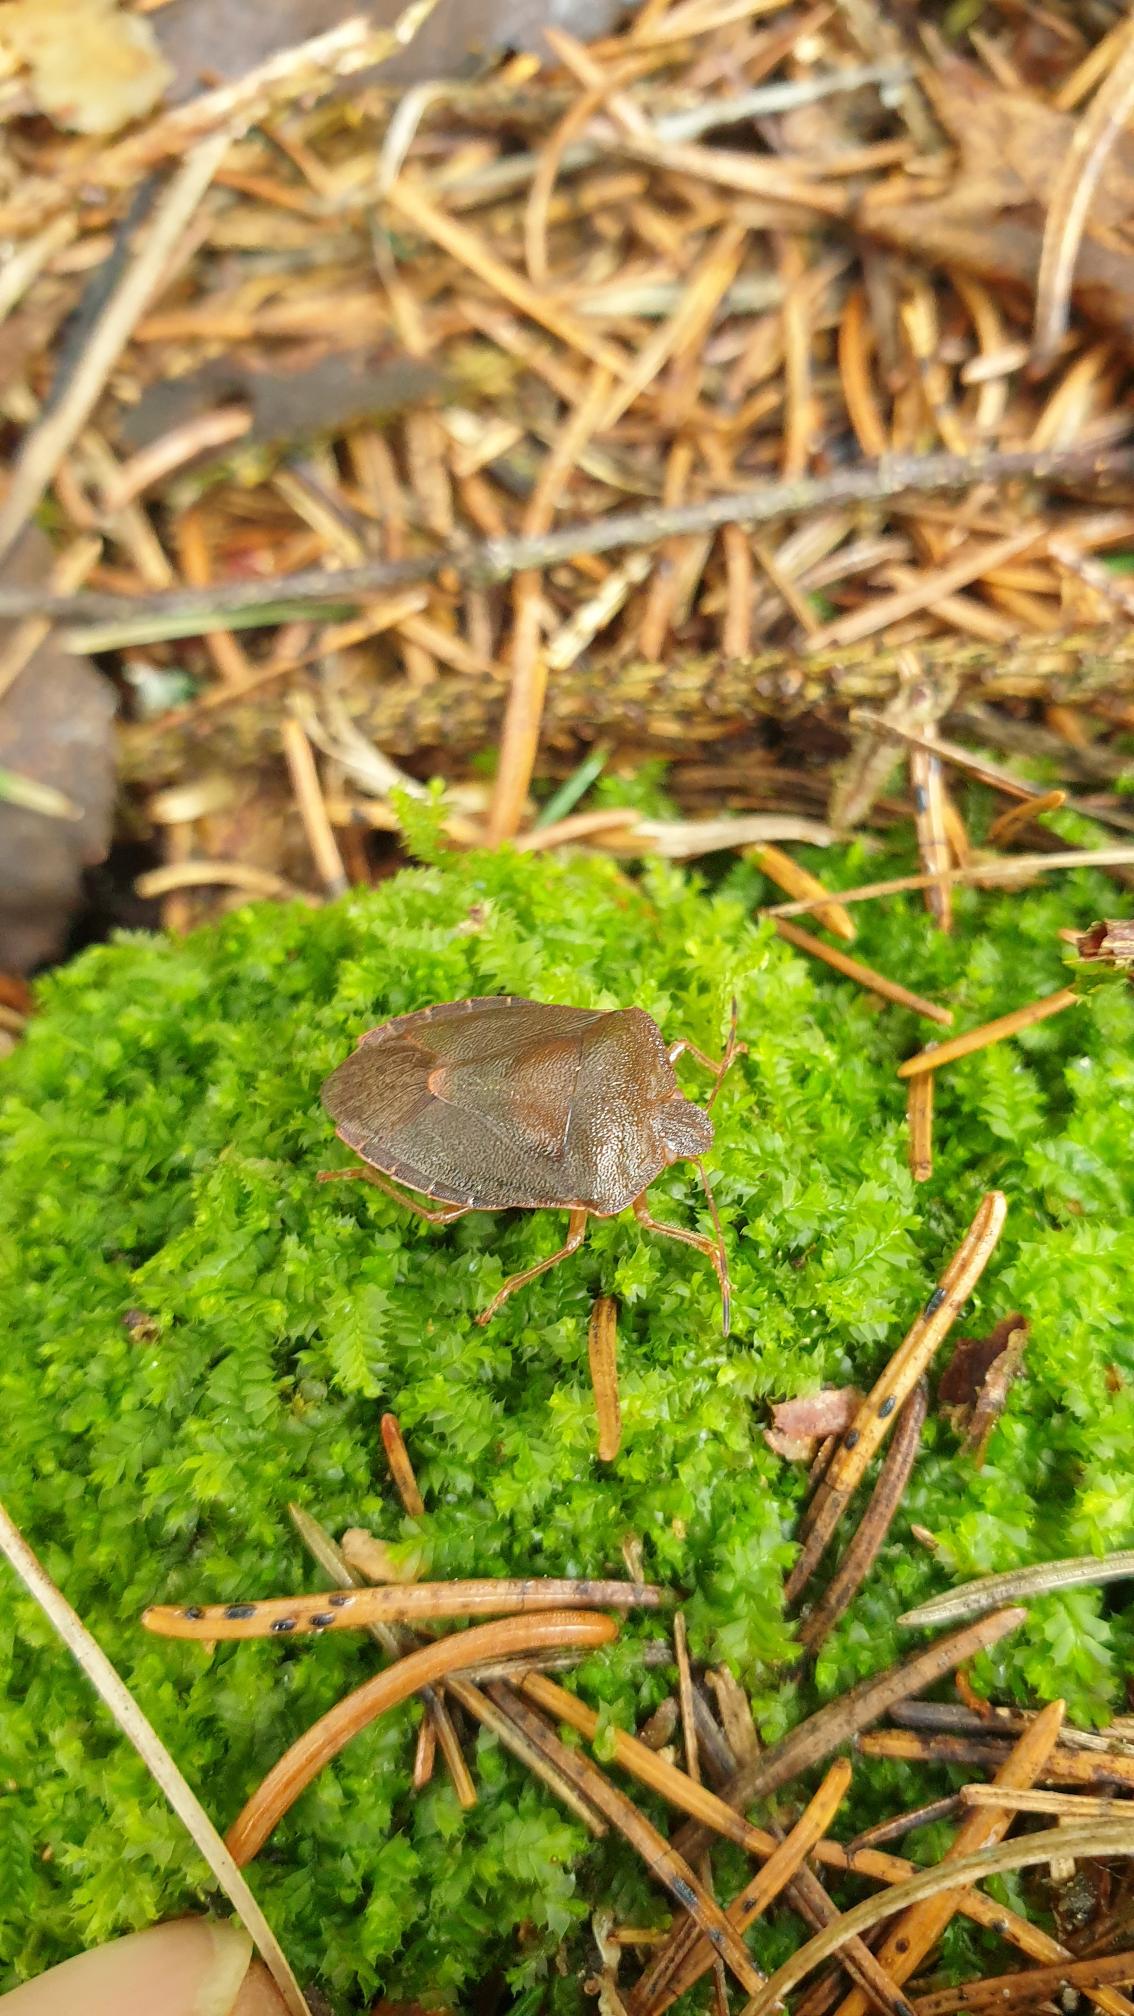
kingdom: Animalia
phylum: Arthropoda
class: Insecta
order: Hemiptera
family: Pentatomidae
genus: Palomena
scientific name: Palomena prasina
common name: Grøn bredtæge
